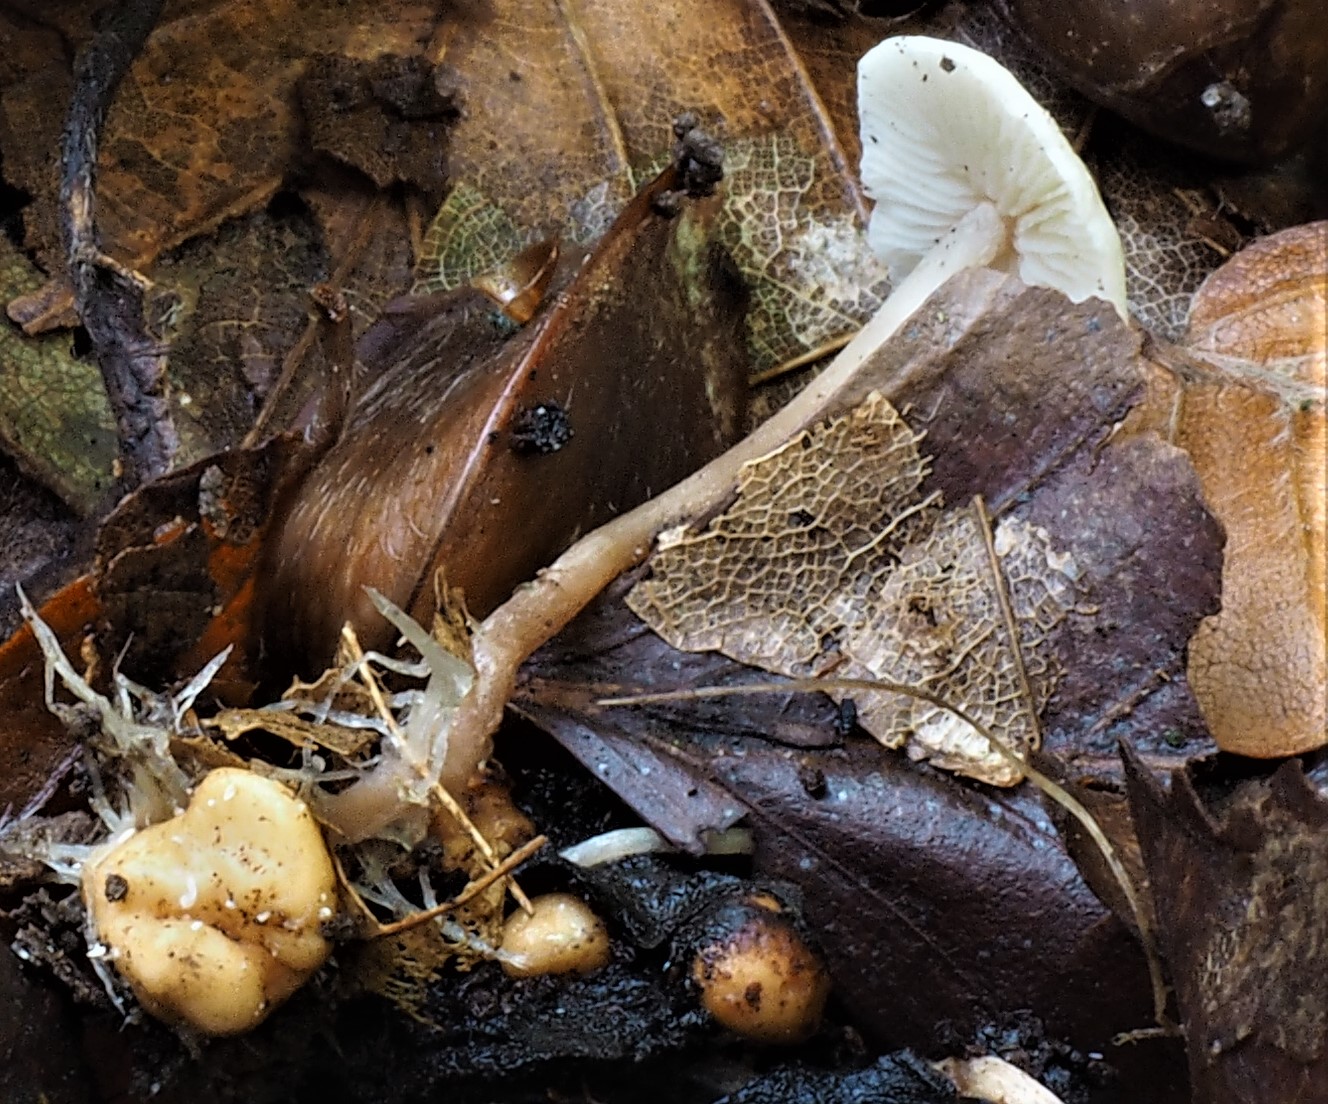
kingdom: Fungi
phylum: Basidiomycota
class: Agaricomycetes
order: Agaricales
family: Tricholomataceae
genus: Collybia
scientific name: Collybia cookei
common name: gulknoldet lighat
